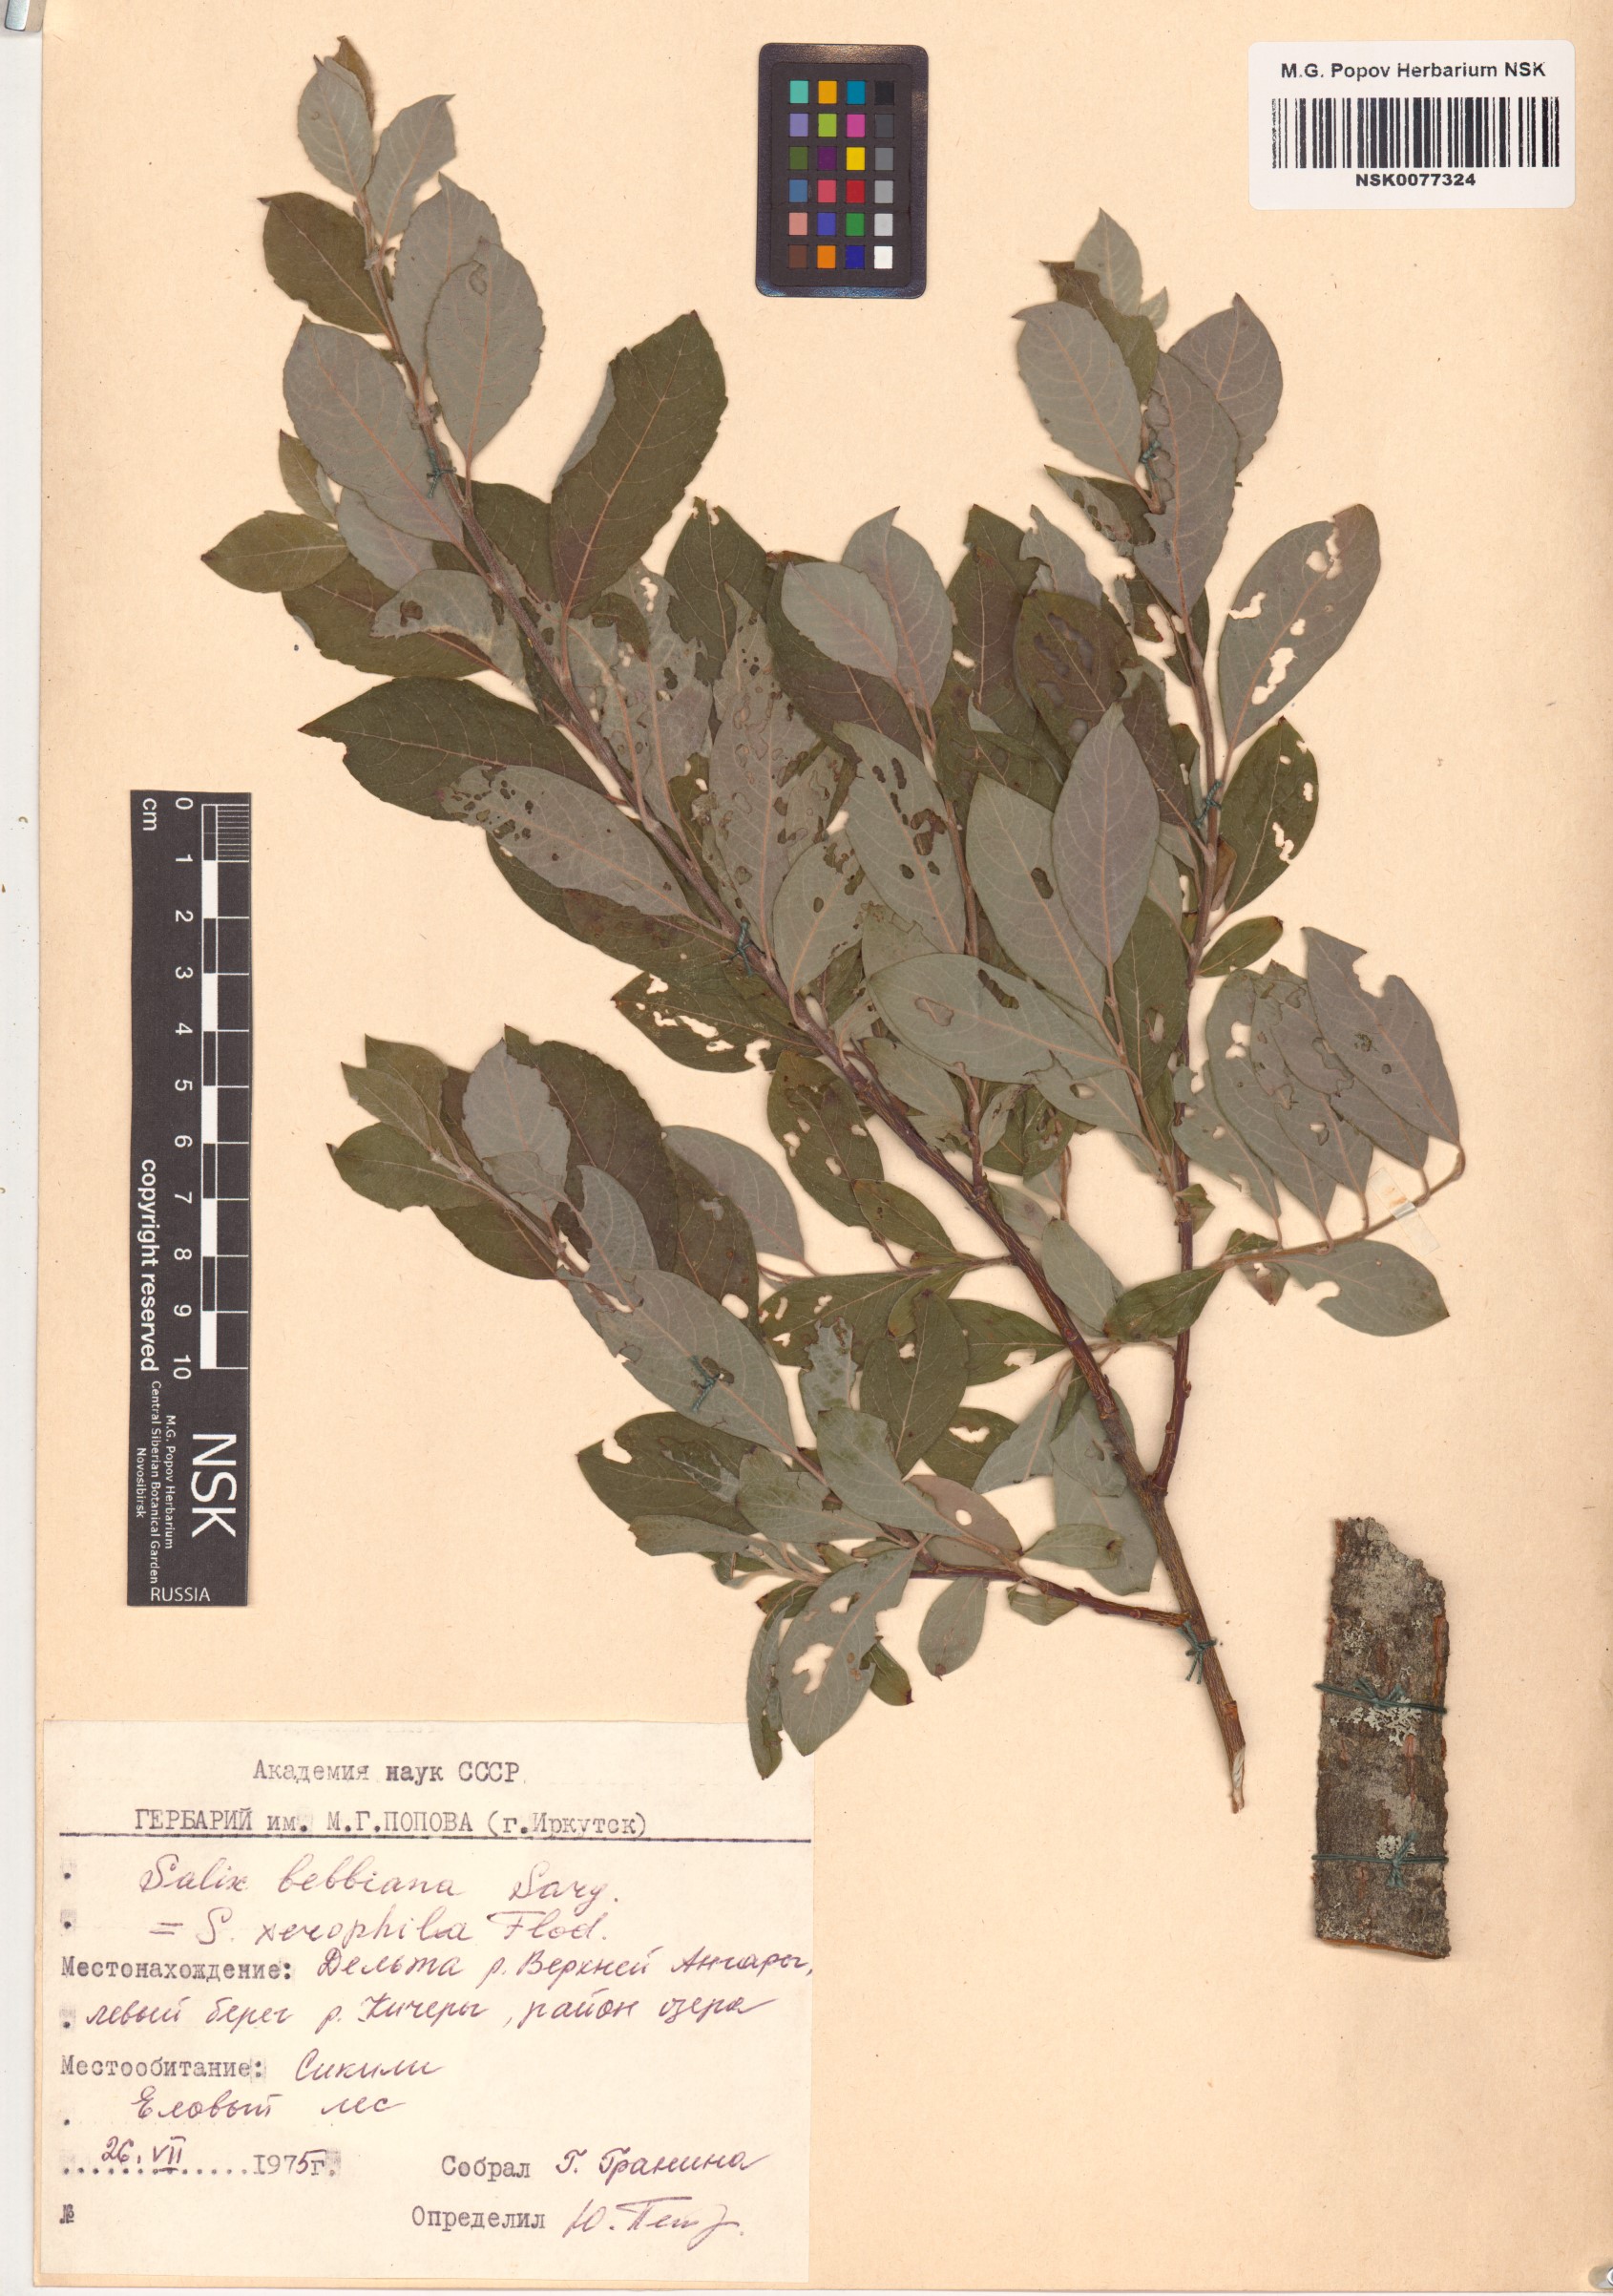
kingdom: Plantae
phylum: Tracheophyta
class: Magnoliopsida
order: Malpighiales
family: Salicaceae
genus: Salix
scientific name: Salix bebbiana
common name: Bebb's willow
